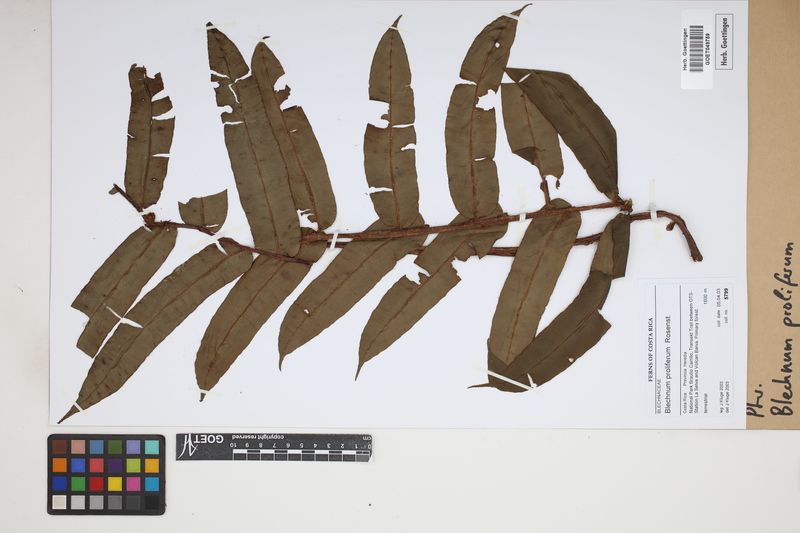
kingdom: Plantae
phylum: Tracheophyta
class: Polypodiopsida
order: Polypodiales
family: Blechnaceae
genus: Parablechnum
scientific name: Parablechnum proliferum
